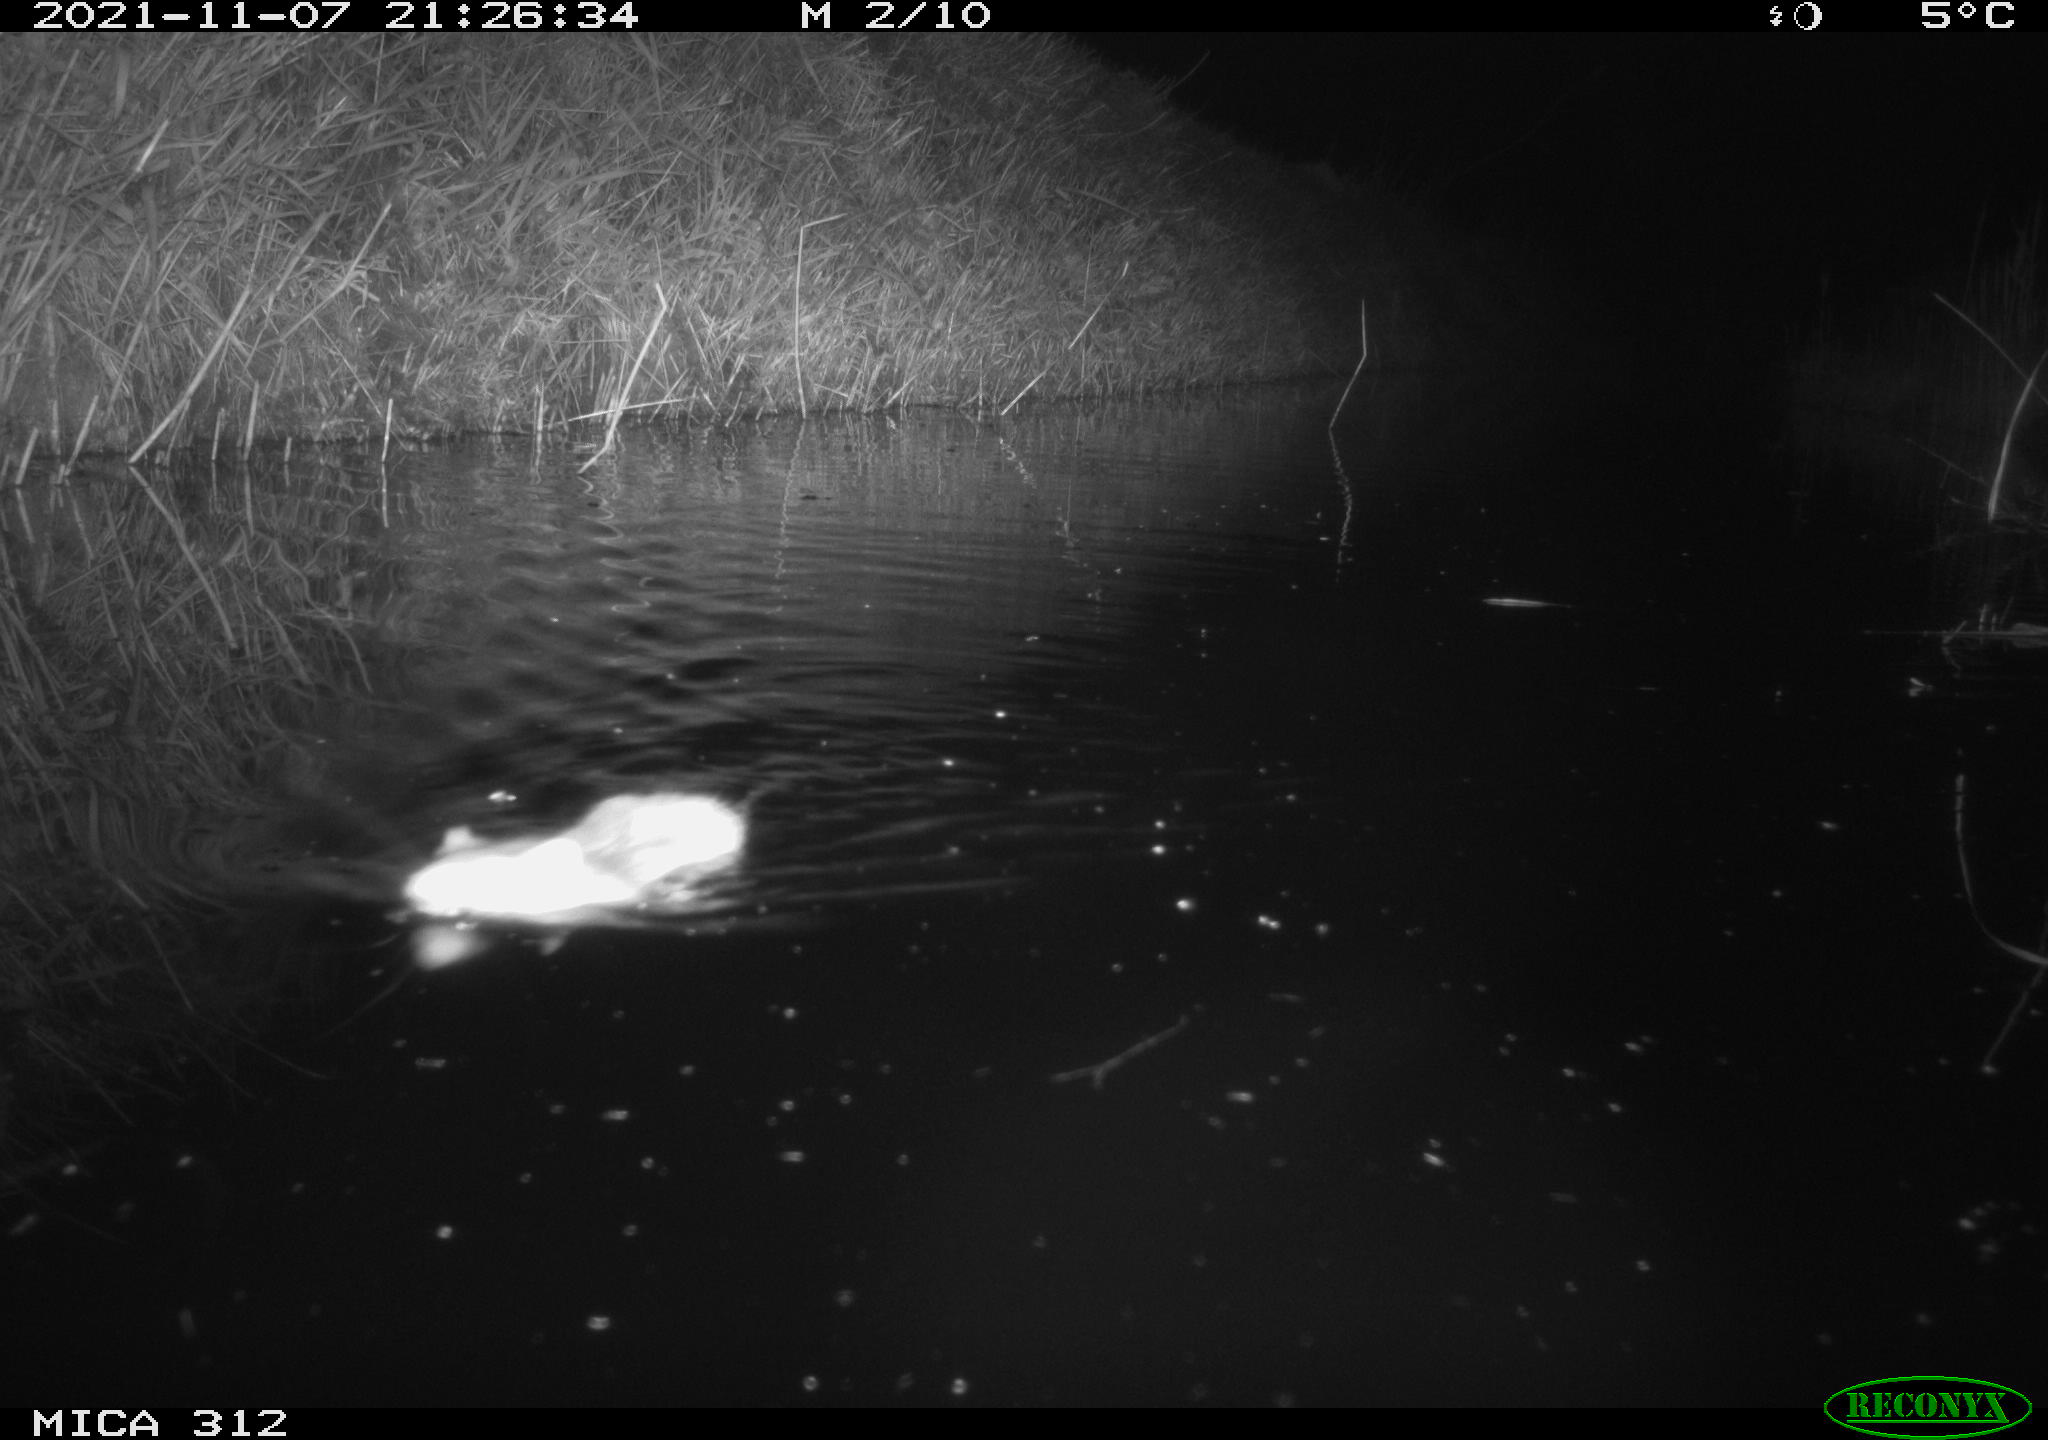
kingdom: Animalia
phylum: Chordata
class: Mammalia
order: Rodentia
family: Cricetidae
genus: Ondatra
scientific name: Ondatra zibethicus
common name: Muskrat
